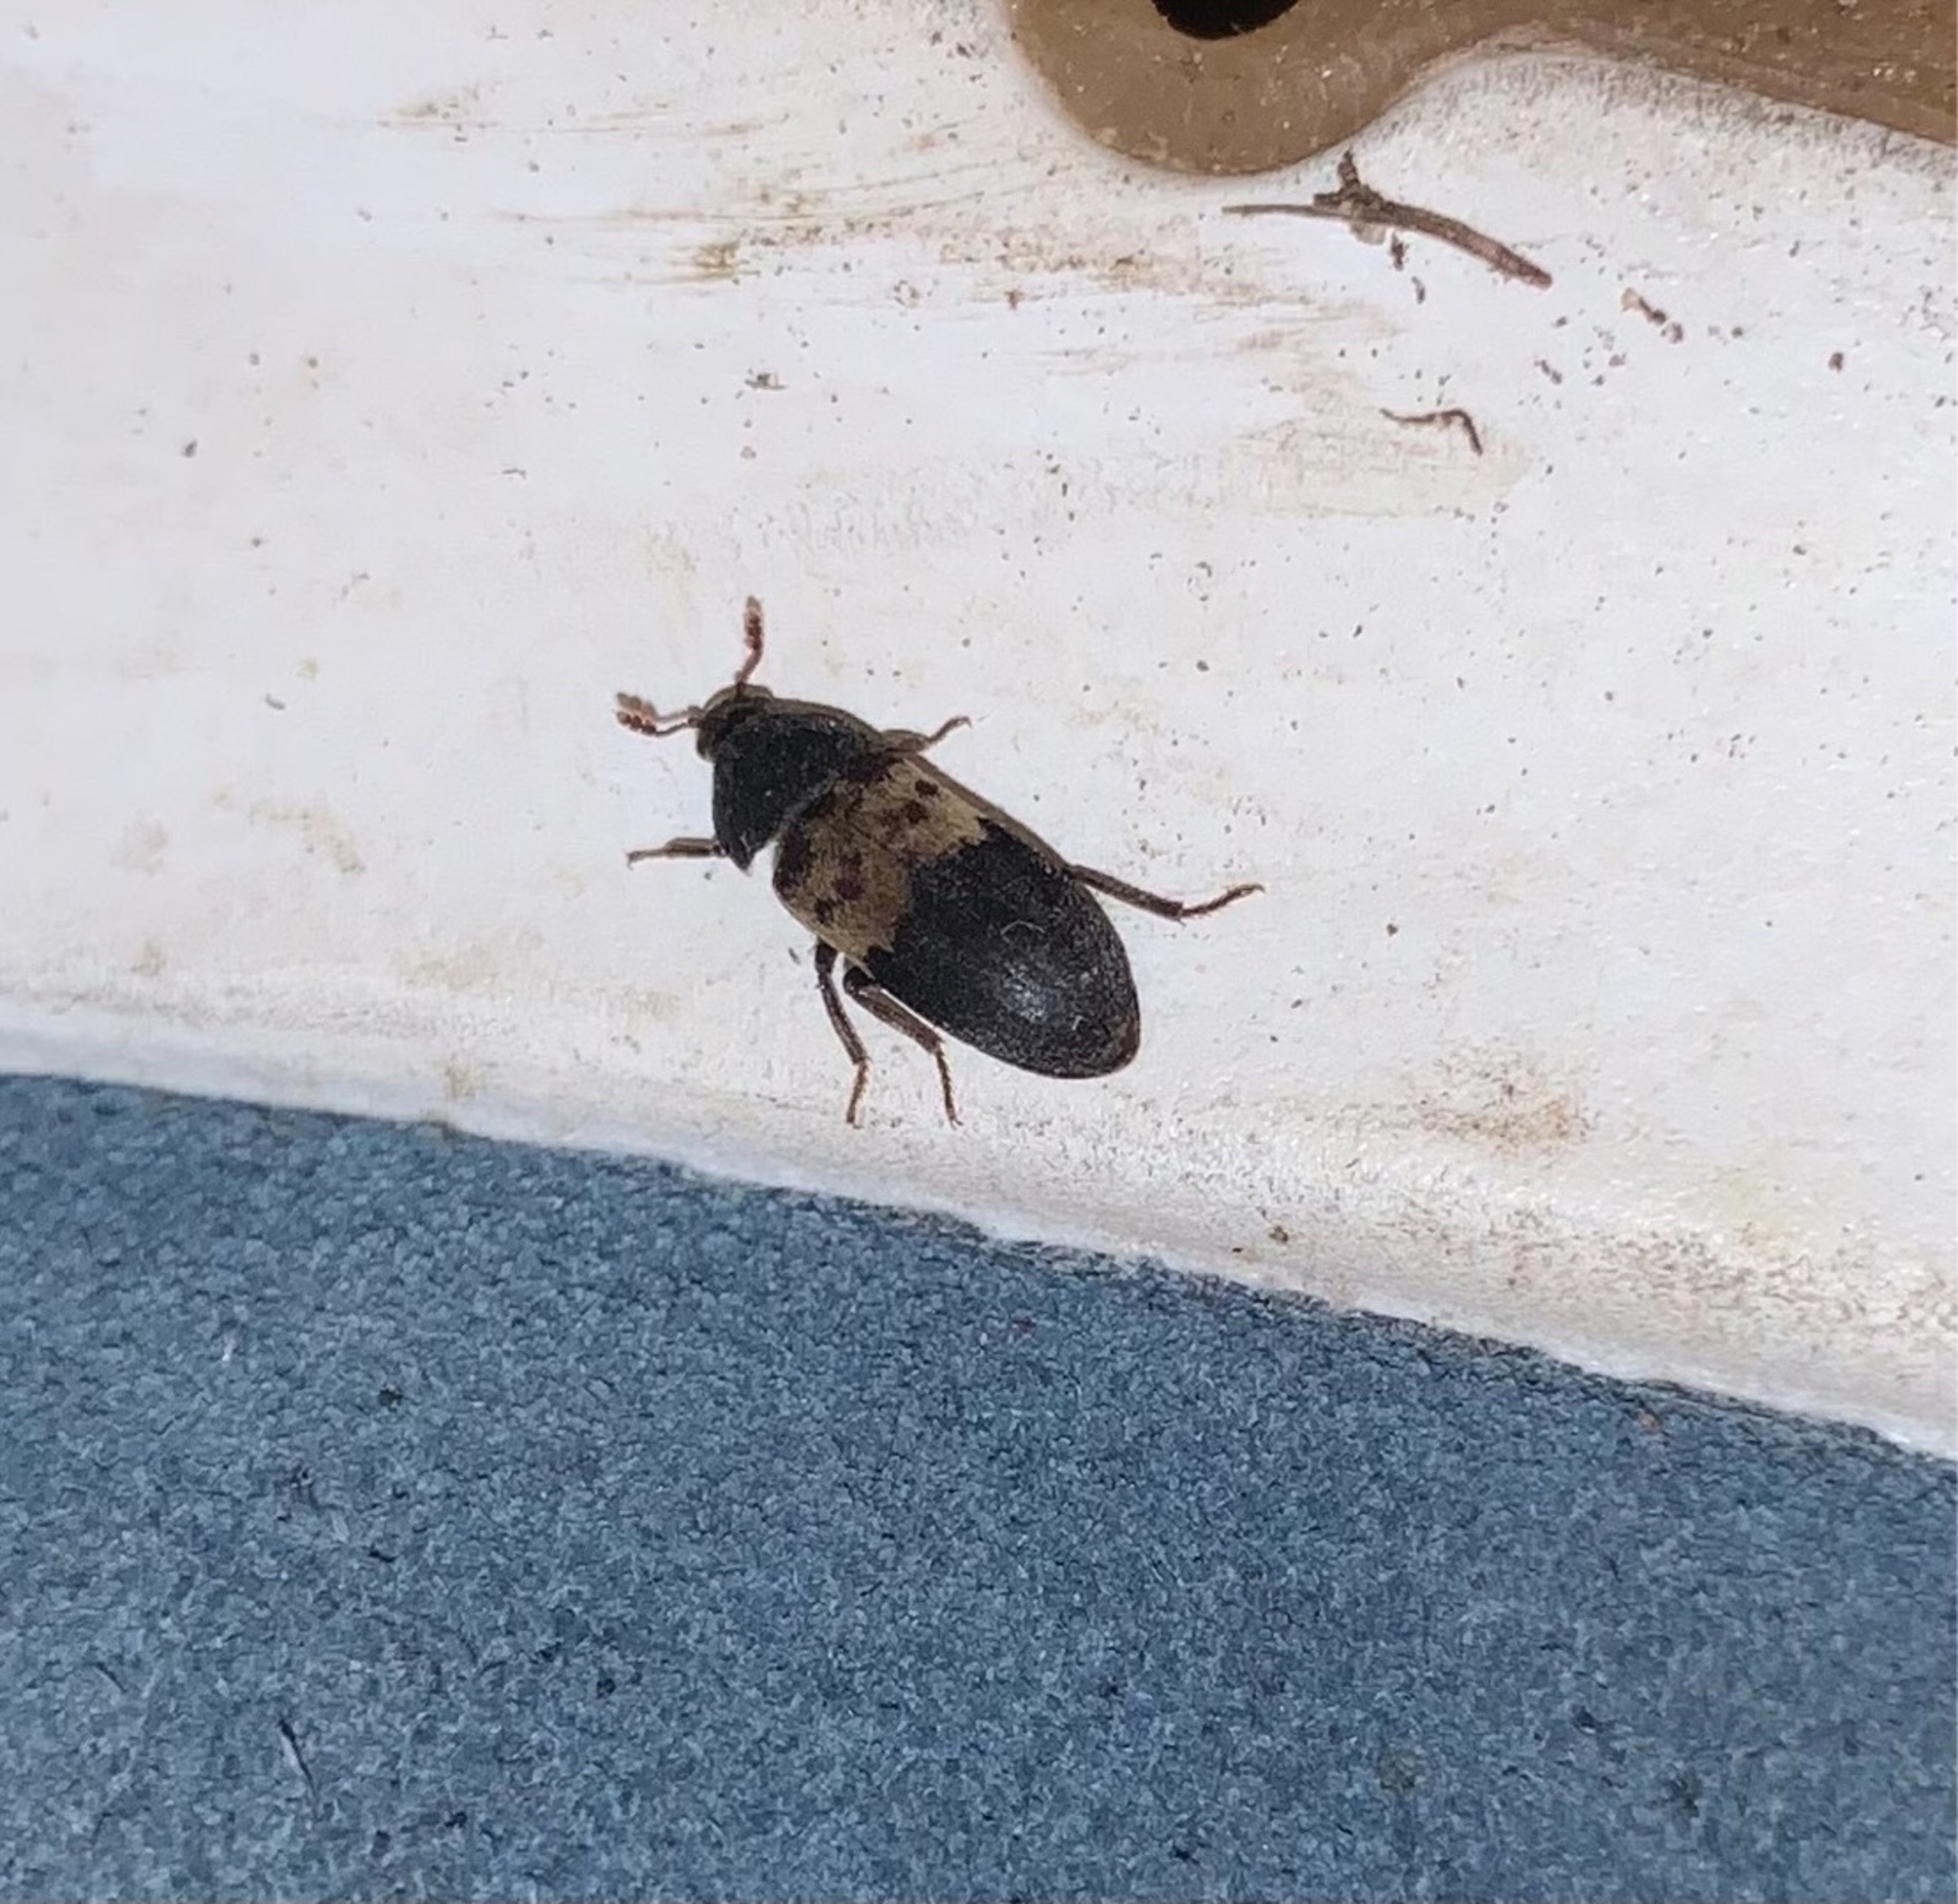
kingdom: Animalia
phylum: Arthropoda
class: Insecta
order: Coleoptera
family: Dermestidae
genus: Dermestes
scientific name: Dermestes lardarius
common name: Flæskeklanner
